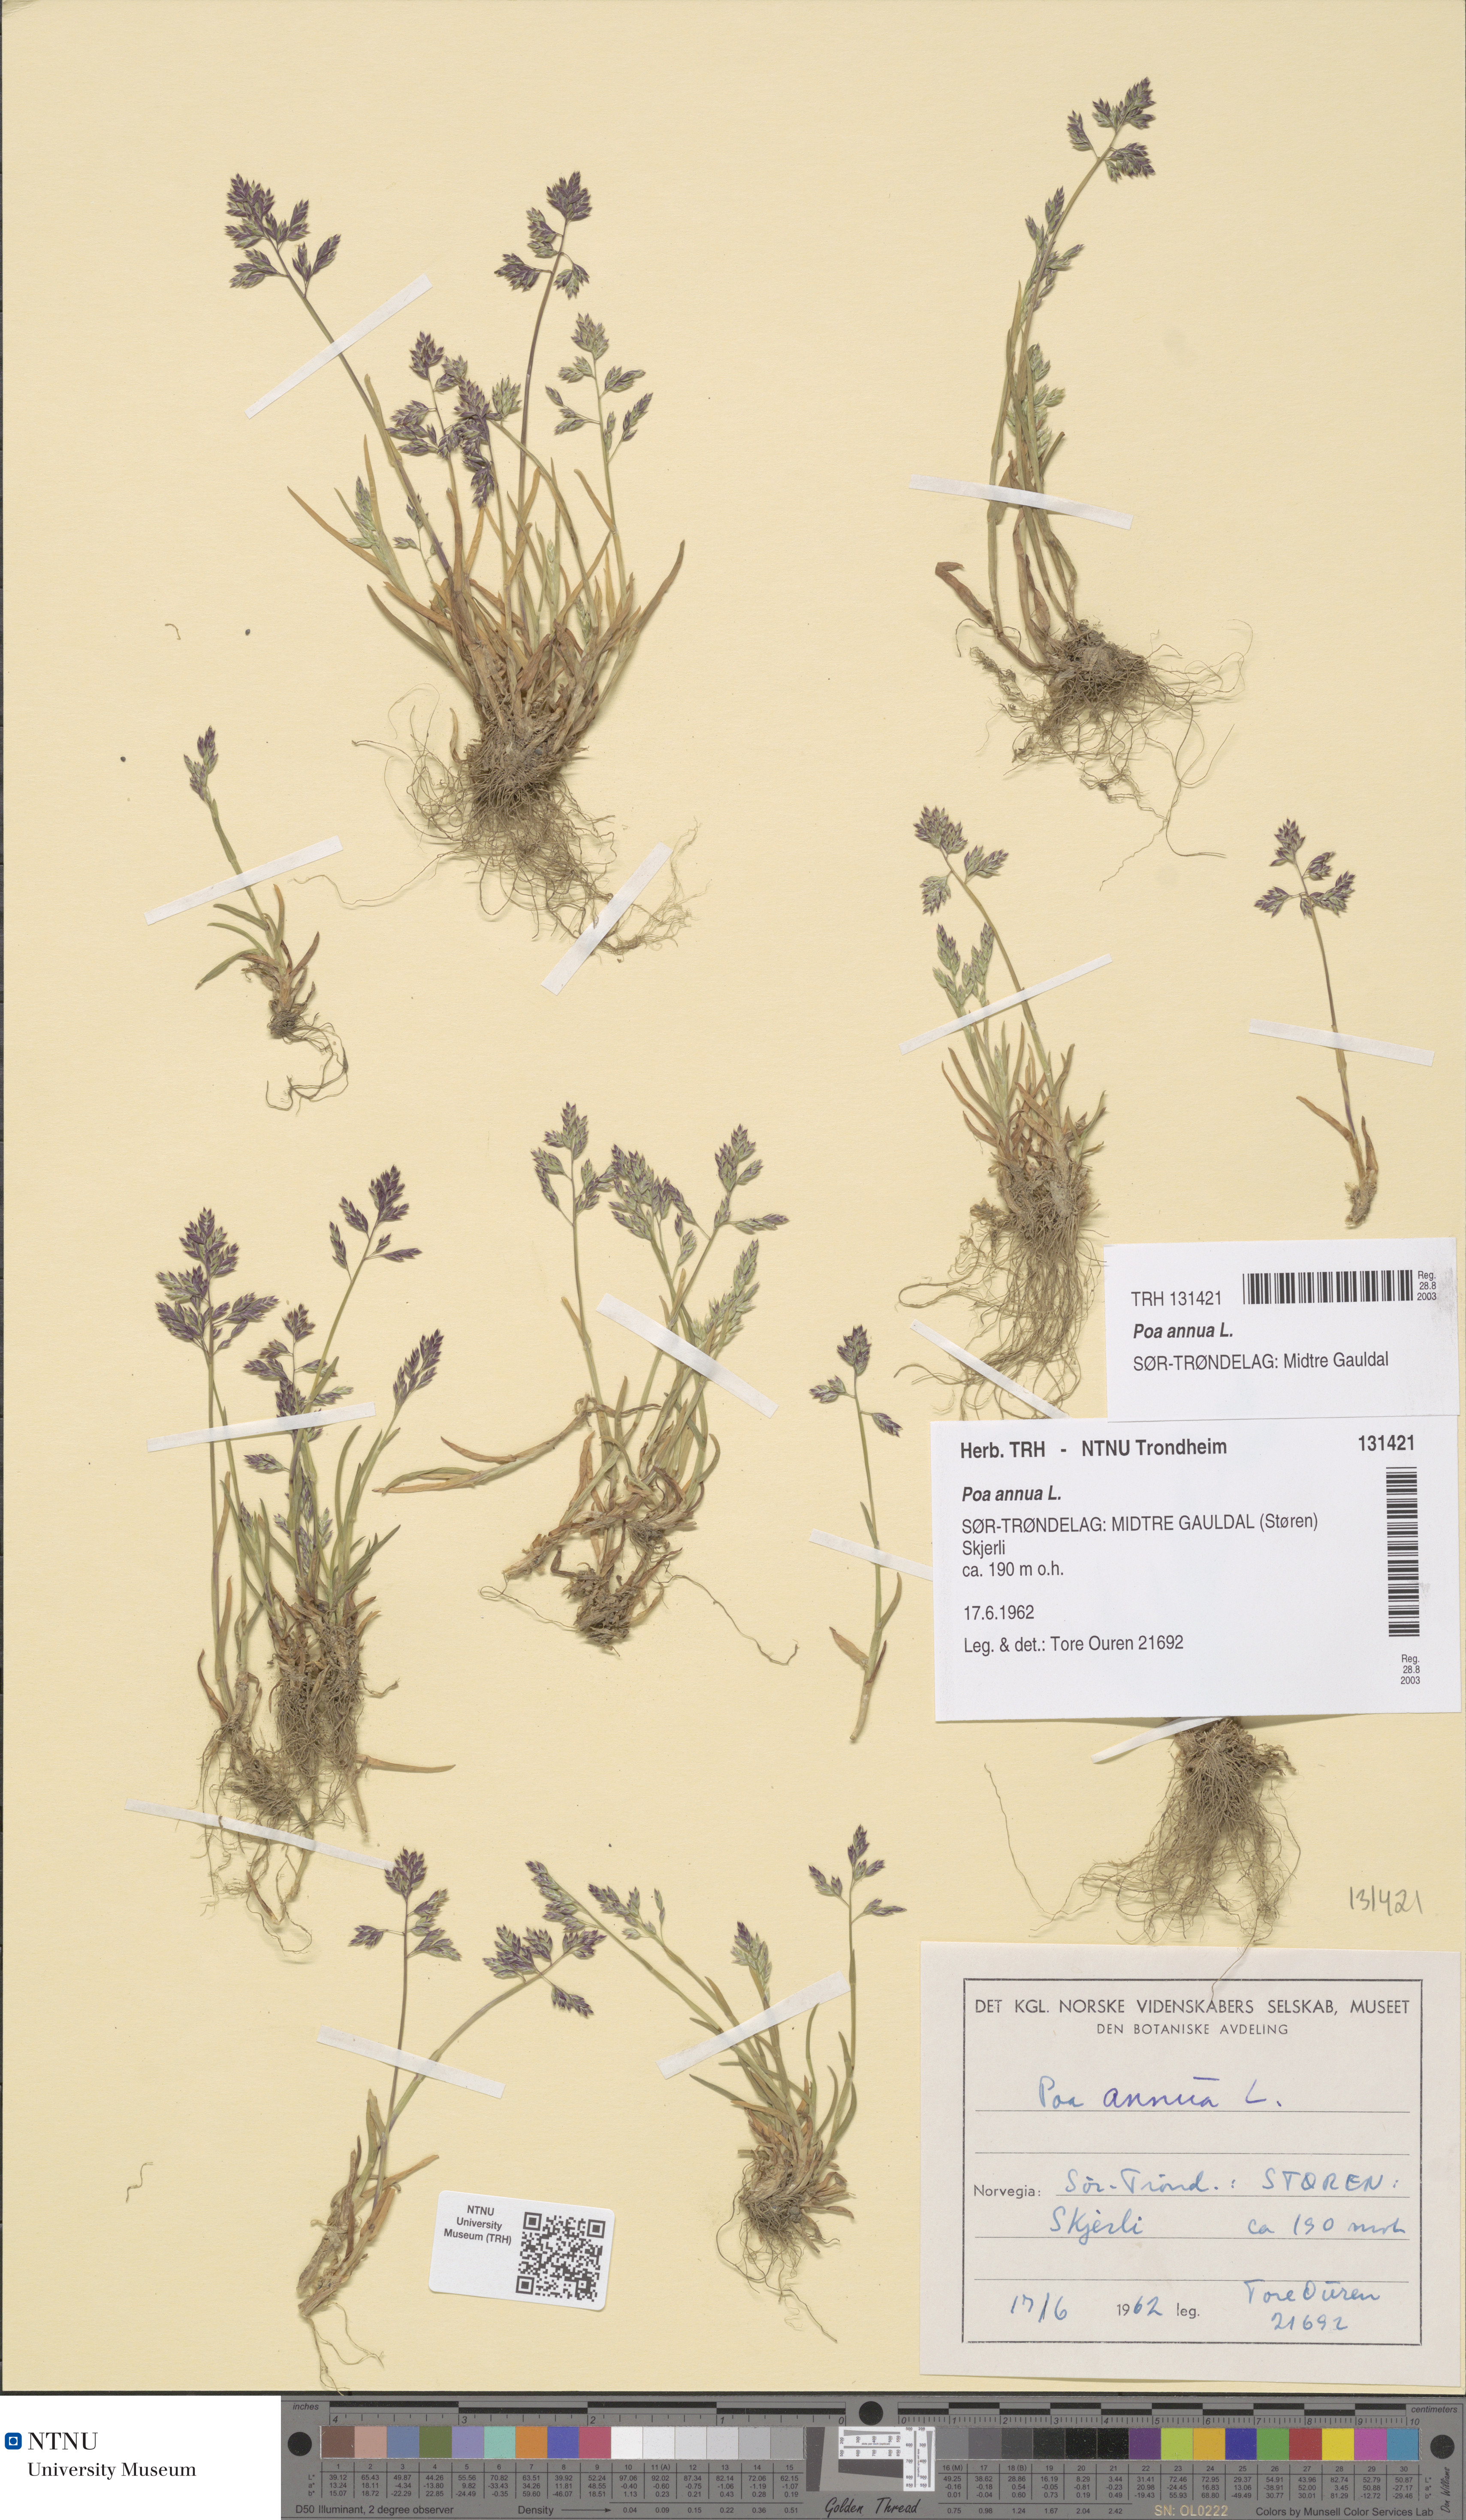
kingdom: Plantae
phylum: Tracheophyta
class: Liliopsida
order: Poales
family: Poaceae
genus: Poa
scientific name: Poa annua
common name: Annual bluegrass
